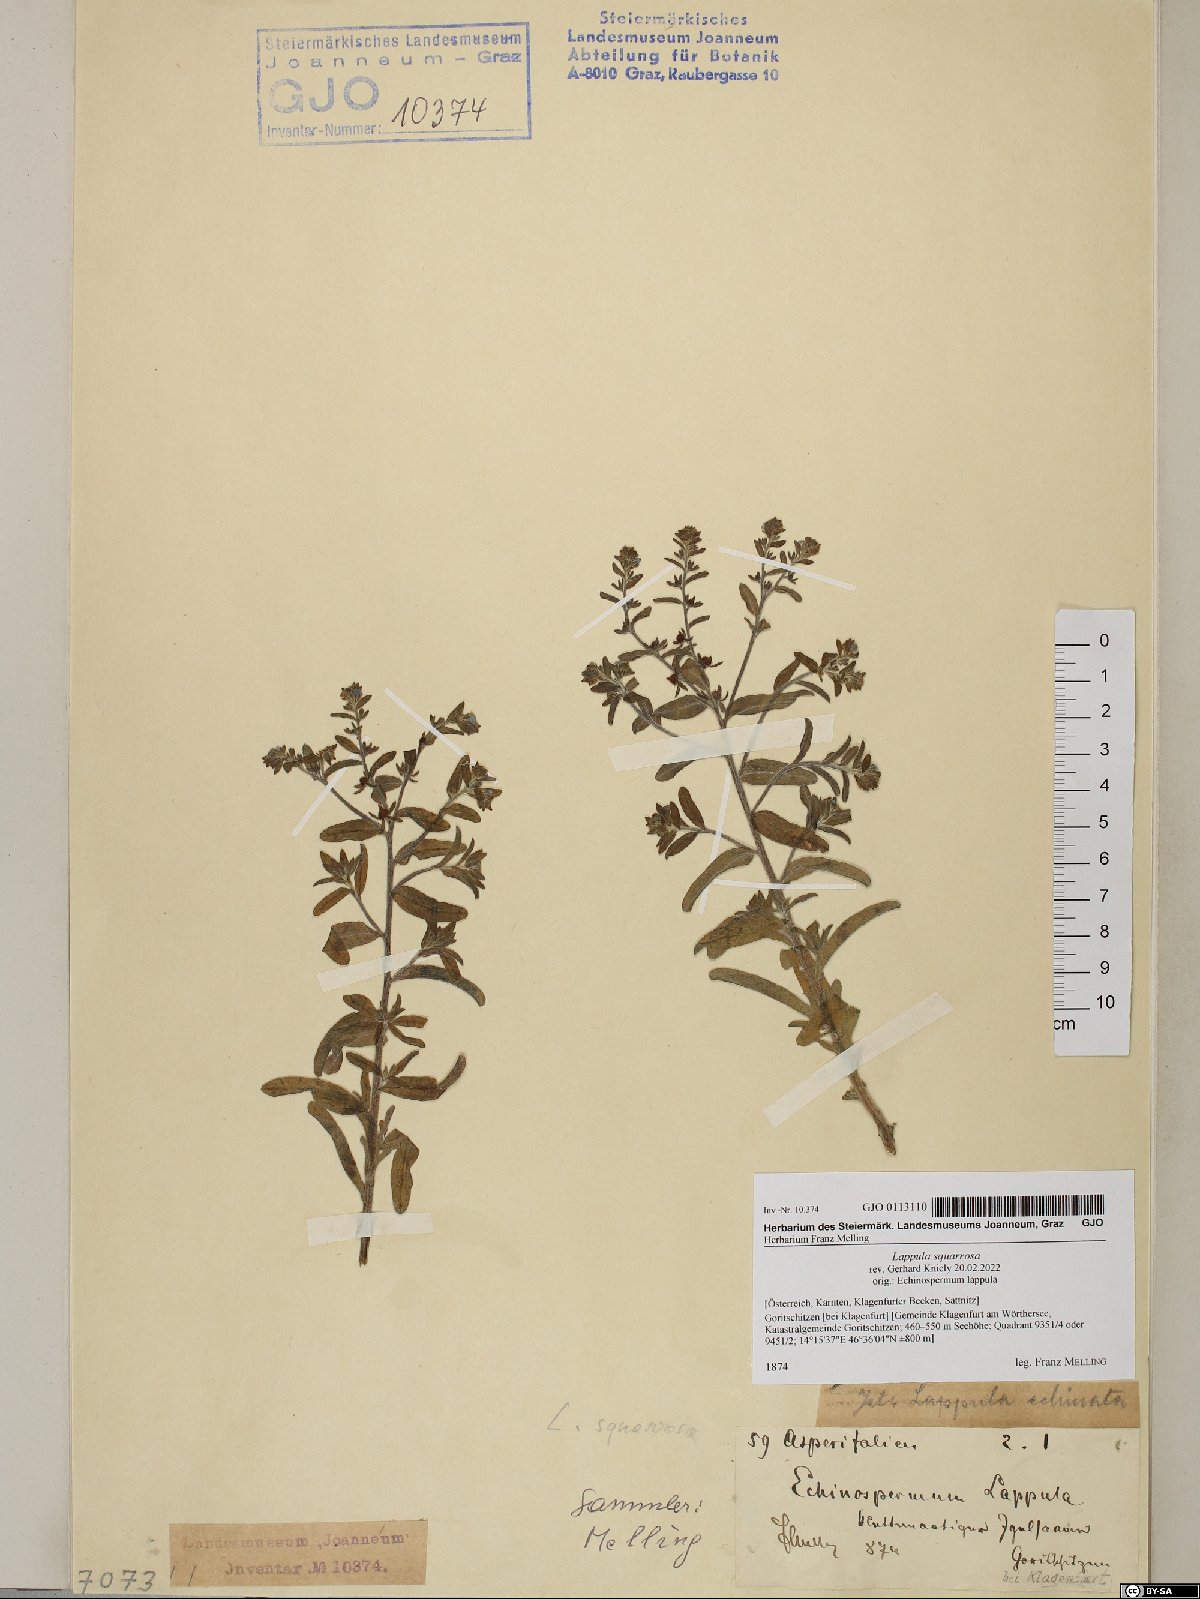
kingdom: Plantae
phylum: Tracheophyta
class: Magnoliopsida
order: Boraginales
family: Boraginaceae
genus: Lappula
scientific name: Lappula squarrosa
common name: European stickseed
